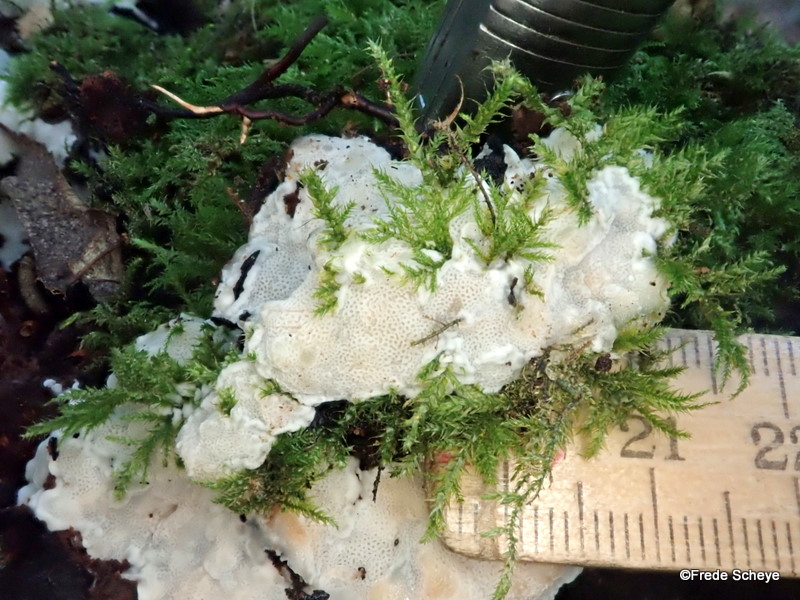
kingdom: Fungi
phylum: Basidiomycota
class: Agaricomycetes
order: Polyporales
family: Meripilaceae
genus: Rigidoporus
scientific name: Rigidoporus sanguinolentus
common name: blod-skorpeporesvamp
